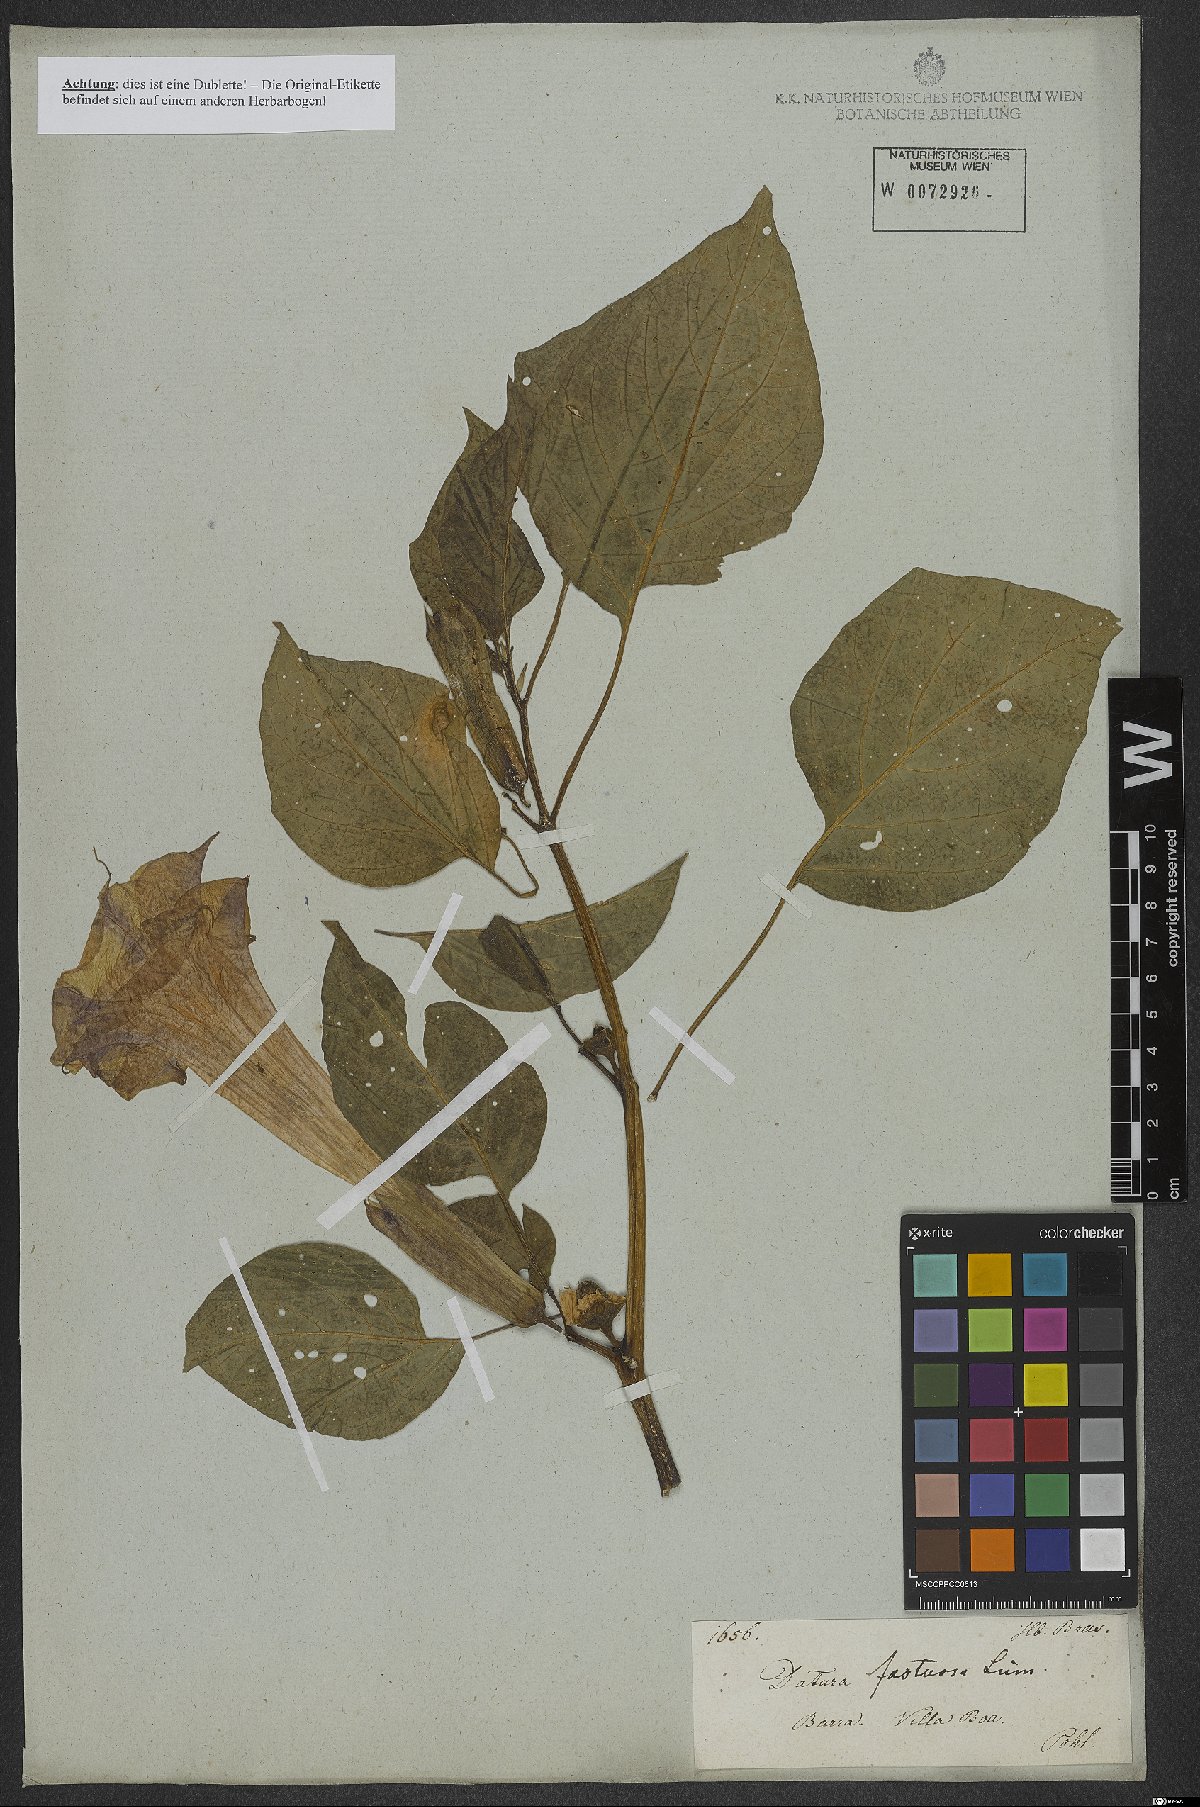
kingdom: Plantae
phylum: Tracheophyta
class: Magnoliopsida
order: Solanales
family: Solanaceae
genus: Datura
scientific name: Datura metel
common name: Jimsonweed
